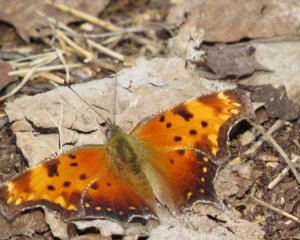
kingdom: Animalia
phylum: Arthropoda
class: Insecta
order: Lepidoptera
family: Nymphalidae
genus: Polygonia
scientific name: Polygonia progne
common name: Gray Comma
